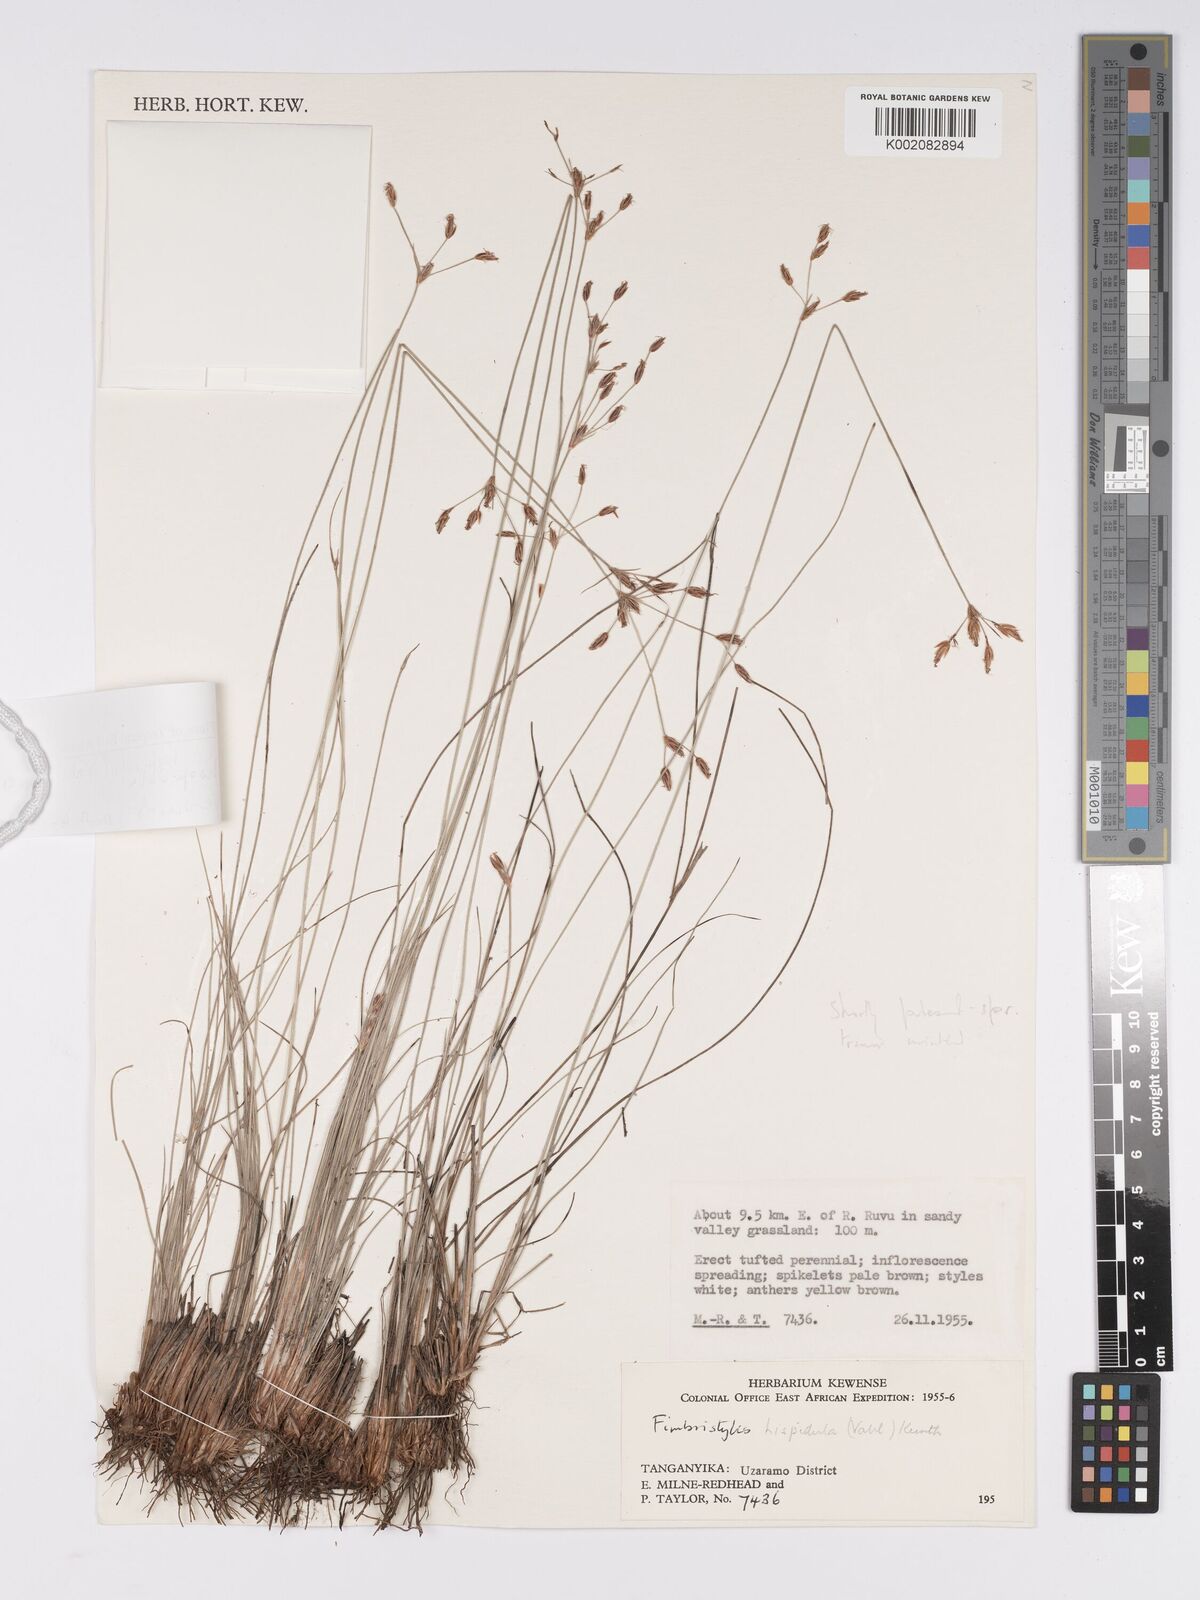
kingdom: Plantae
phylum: Tracheophyta
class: Liliopsida
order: Poales
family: Cyperaceae
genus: Bulbostylis
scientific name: Bulbostylis hispidula
